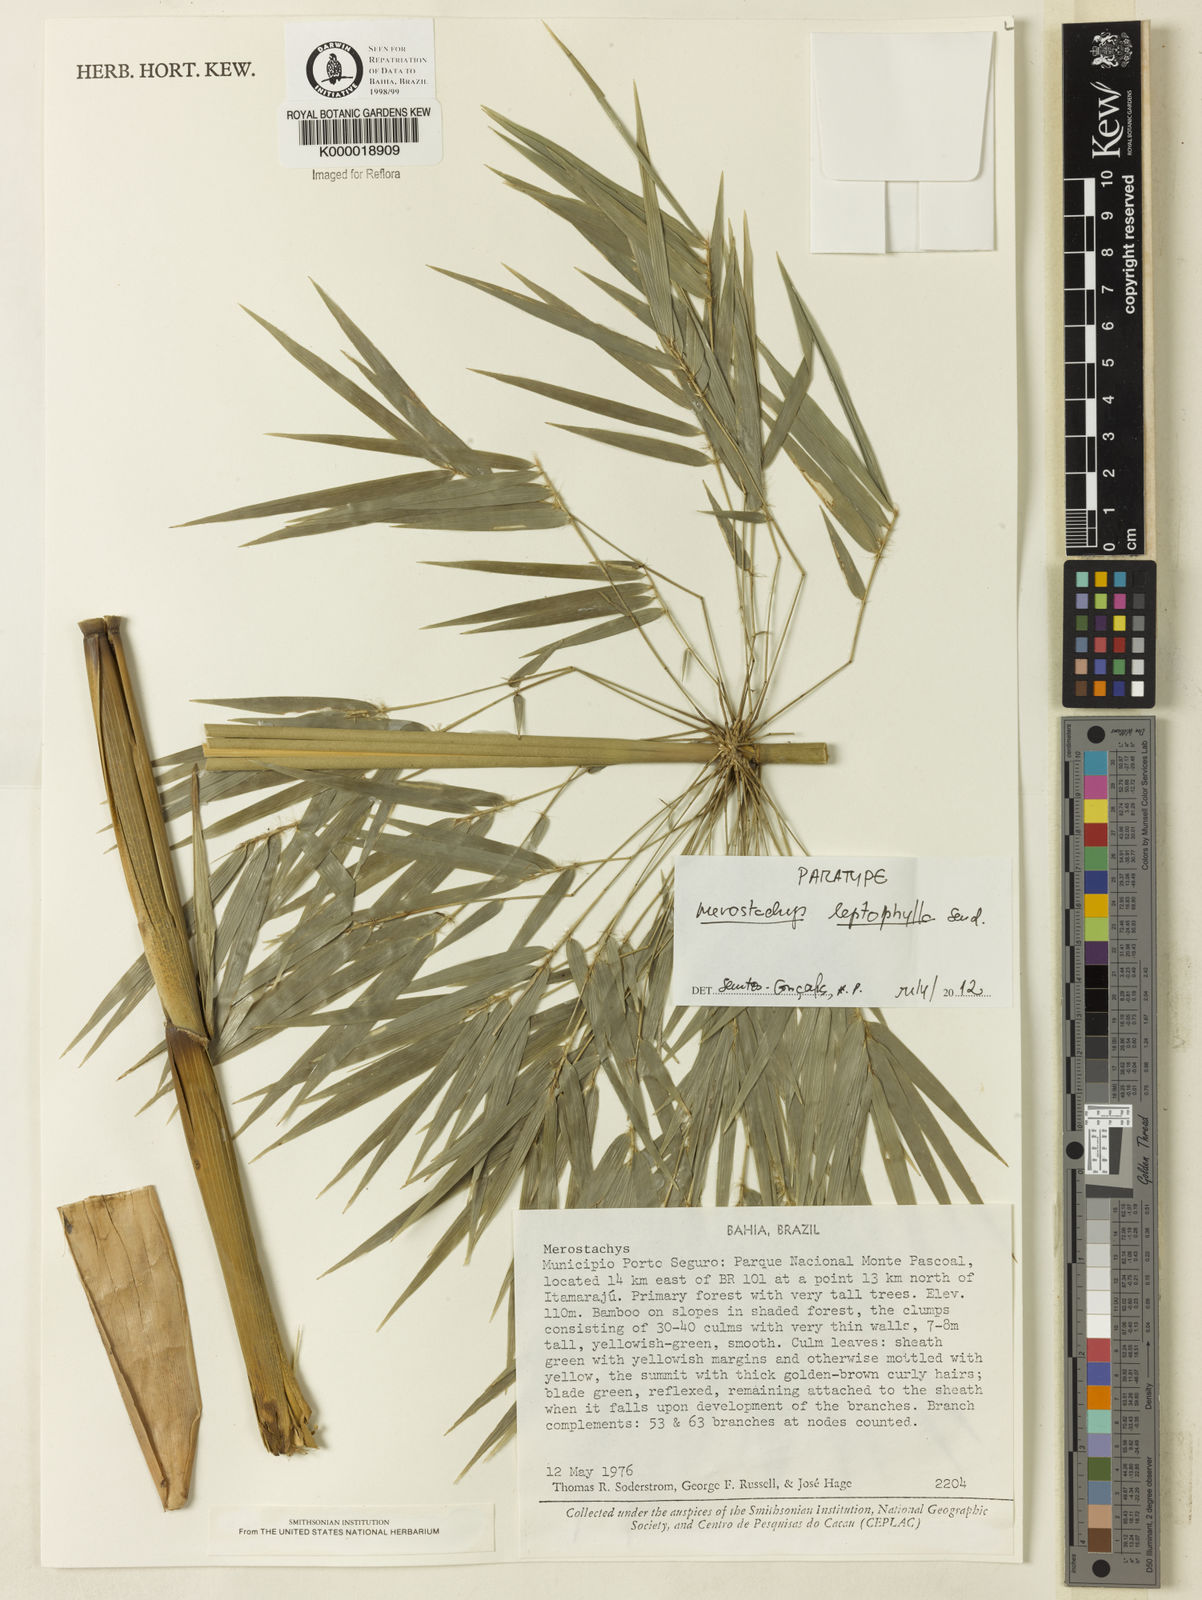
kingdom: Plantae
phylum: Tracheophyta
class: Liliopsida
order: Poales
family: Poaceae
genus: Merostachys
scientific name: Merostachys leptophylla
